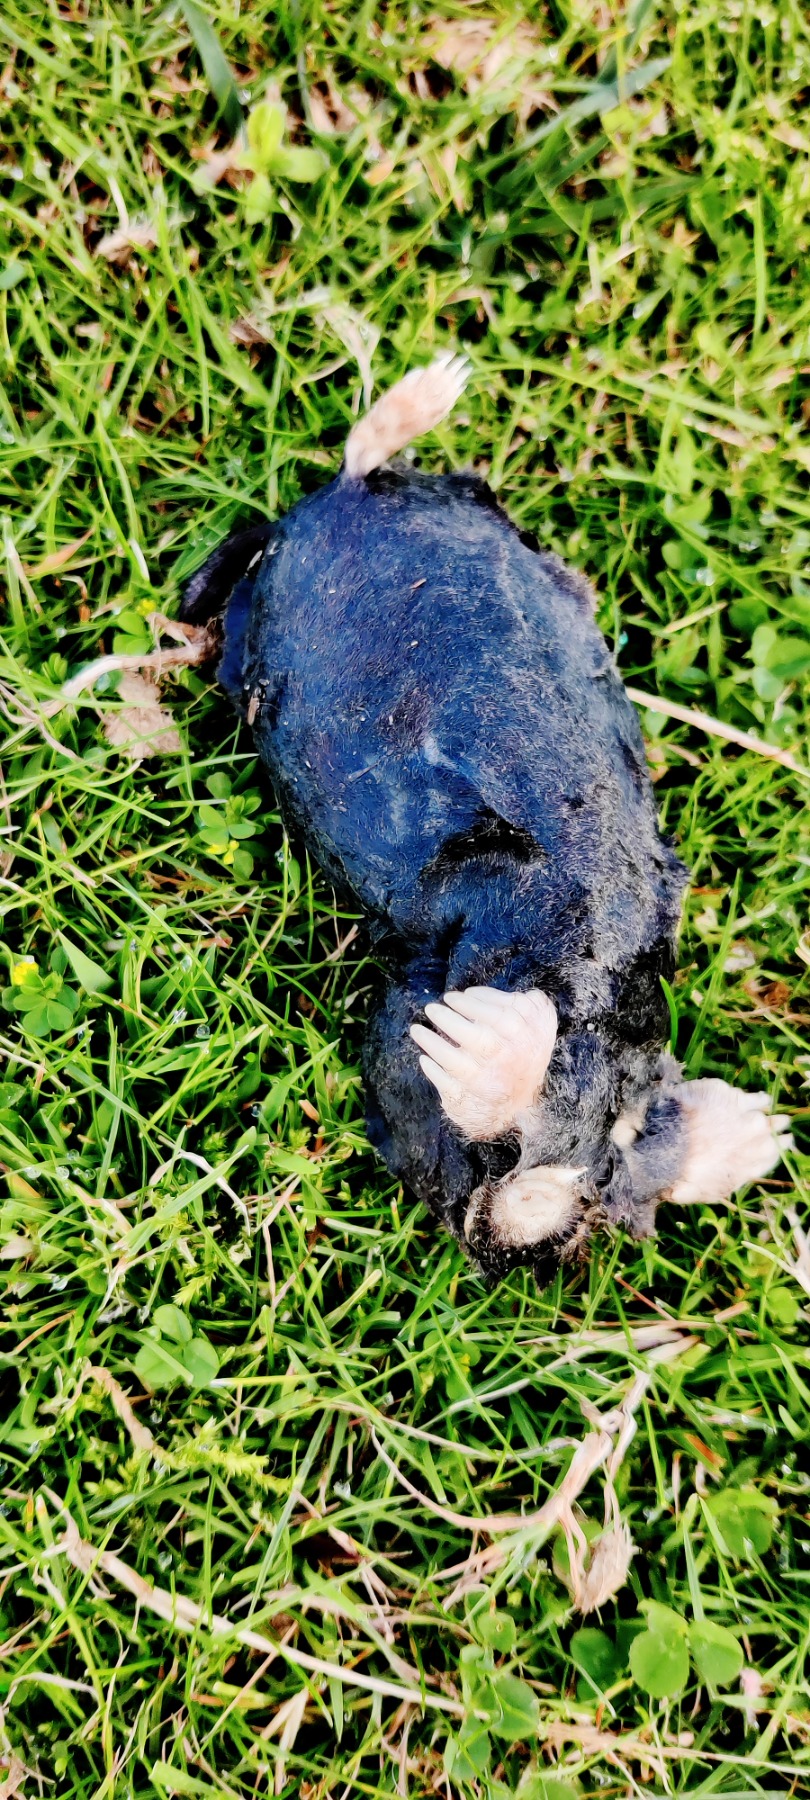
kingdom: Animalia
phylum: Chordata
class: Mammalia
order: Soricomorpha
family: Talpidae
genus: Talpa
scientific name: Talpa europaea
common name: Muldvarp
